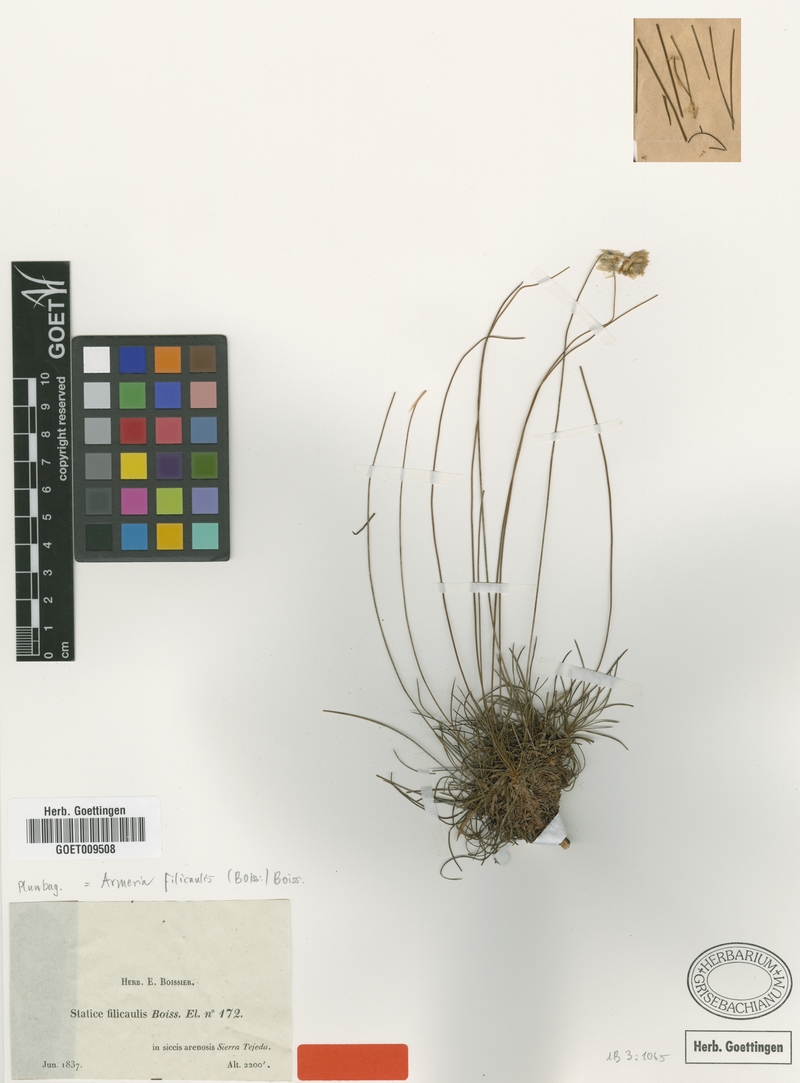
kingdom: Plantae
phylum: Tracheophyta
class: Magnoliopsida
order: Caryophyllales
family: Plumbaginaceae
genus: Armeria
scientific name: Armeria filicaulis
